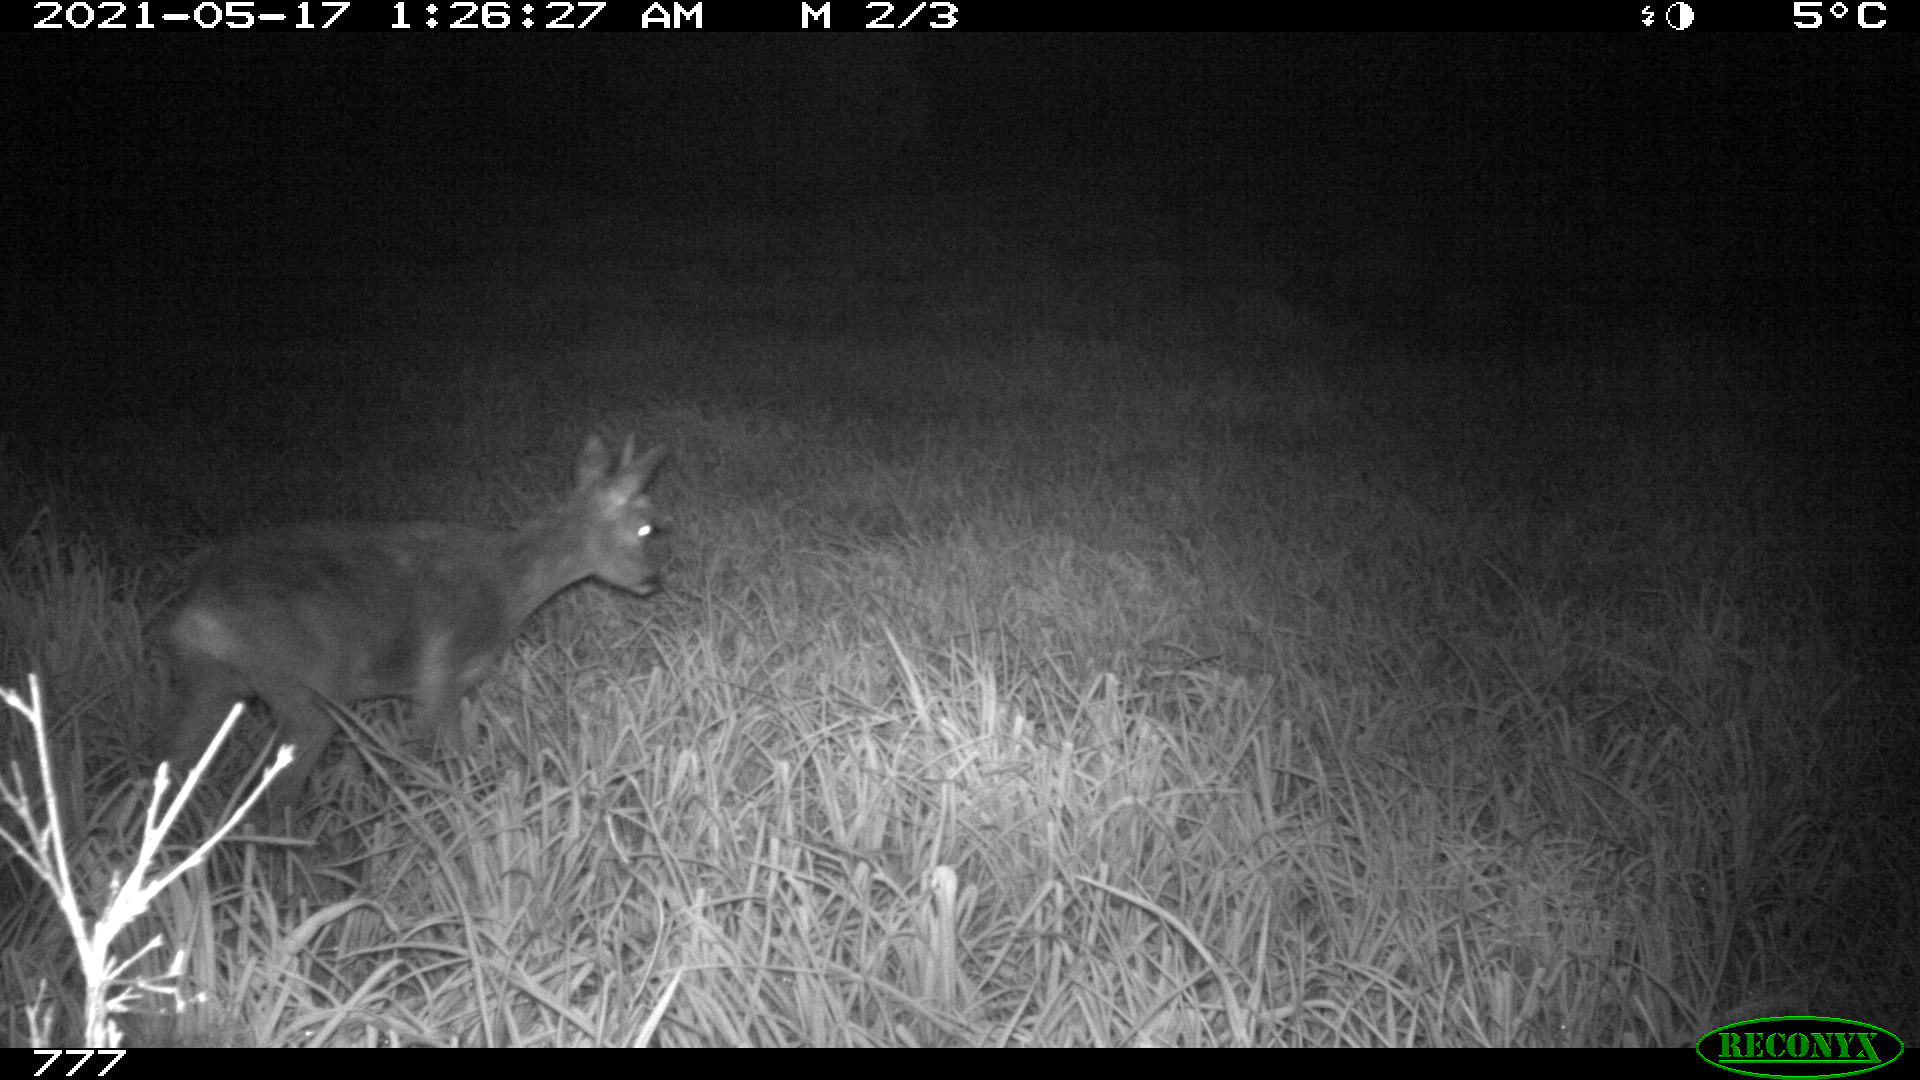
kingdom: Animalia
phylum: Chordata
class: Mammalia
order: Artiodactyla
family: Cervidae
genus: Capreolus
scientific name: Capreolus capreolus
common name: Western roe deer
